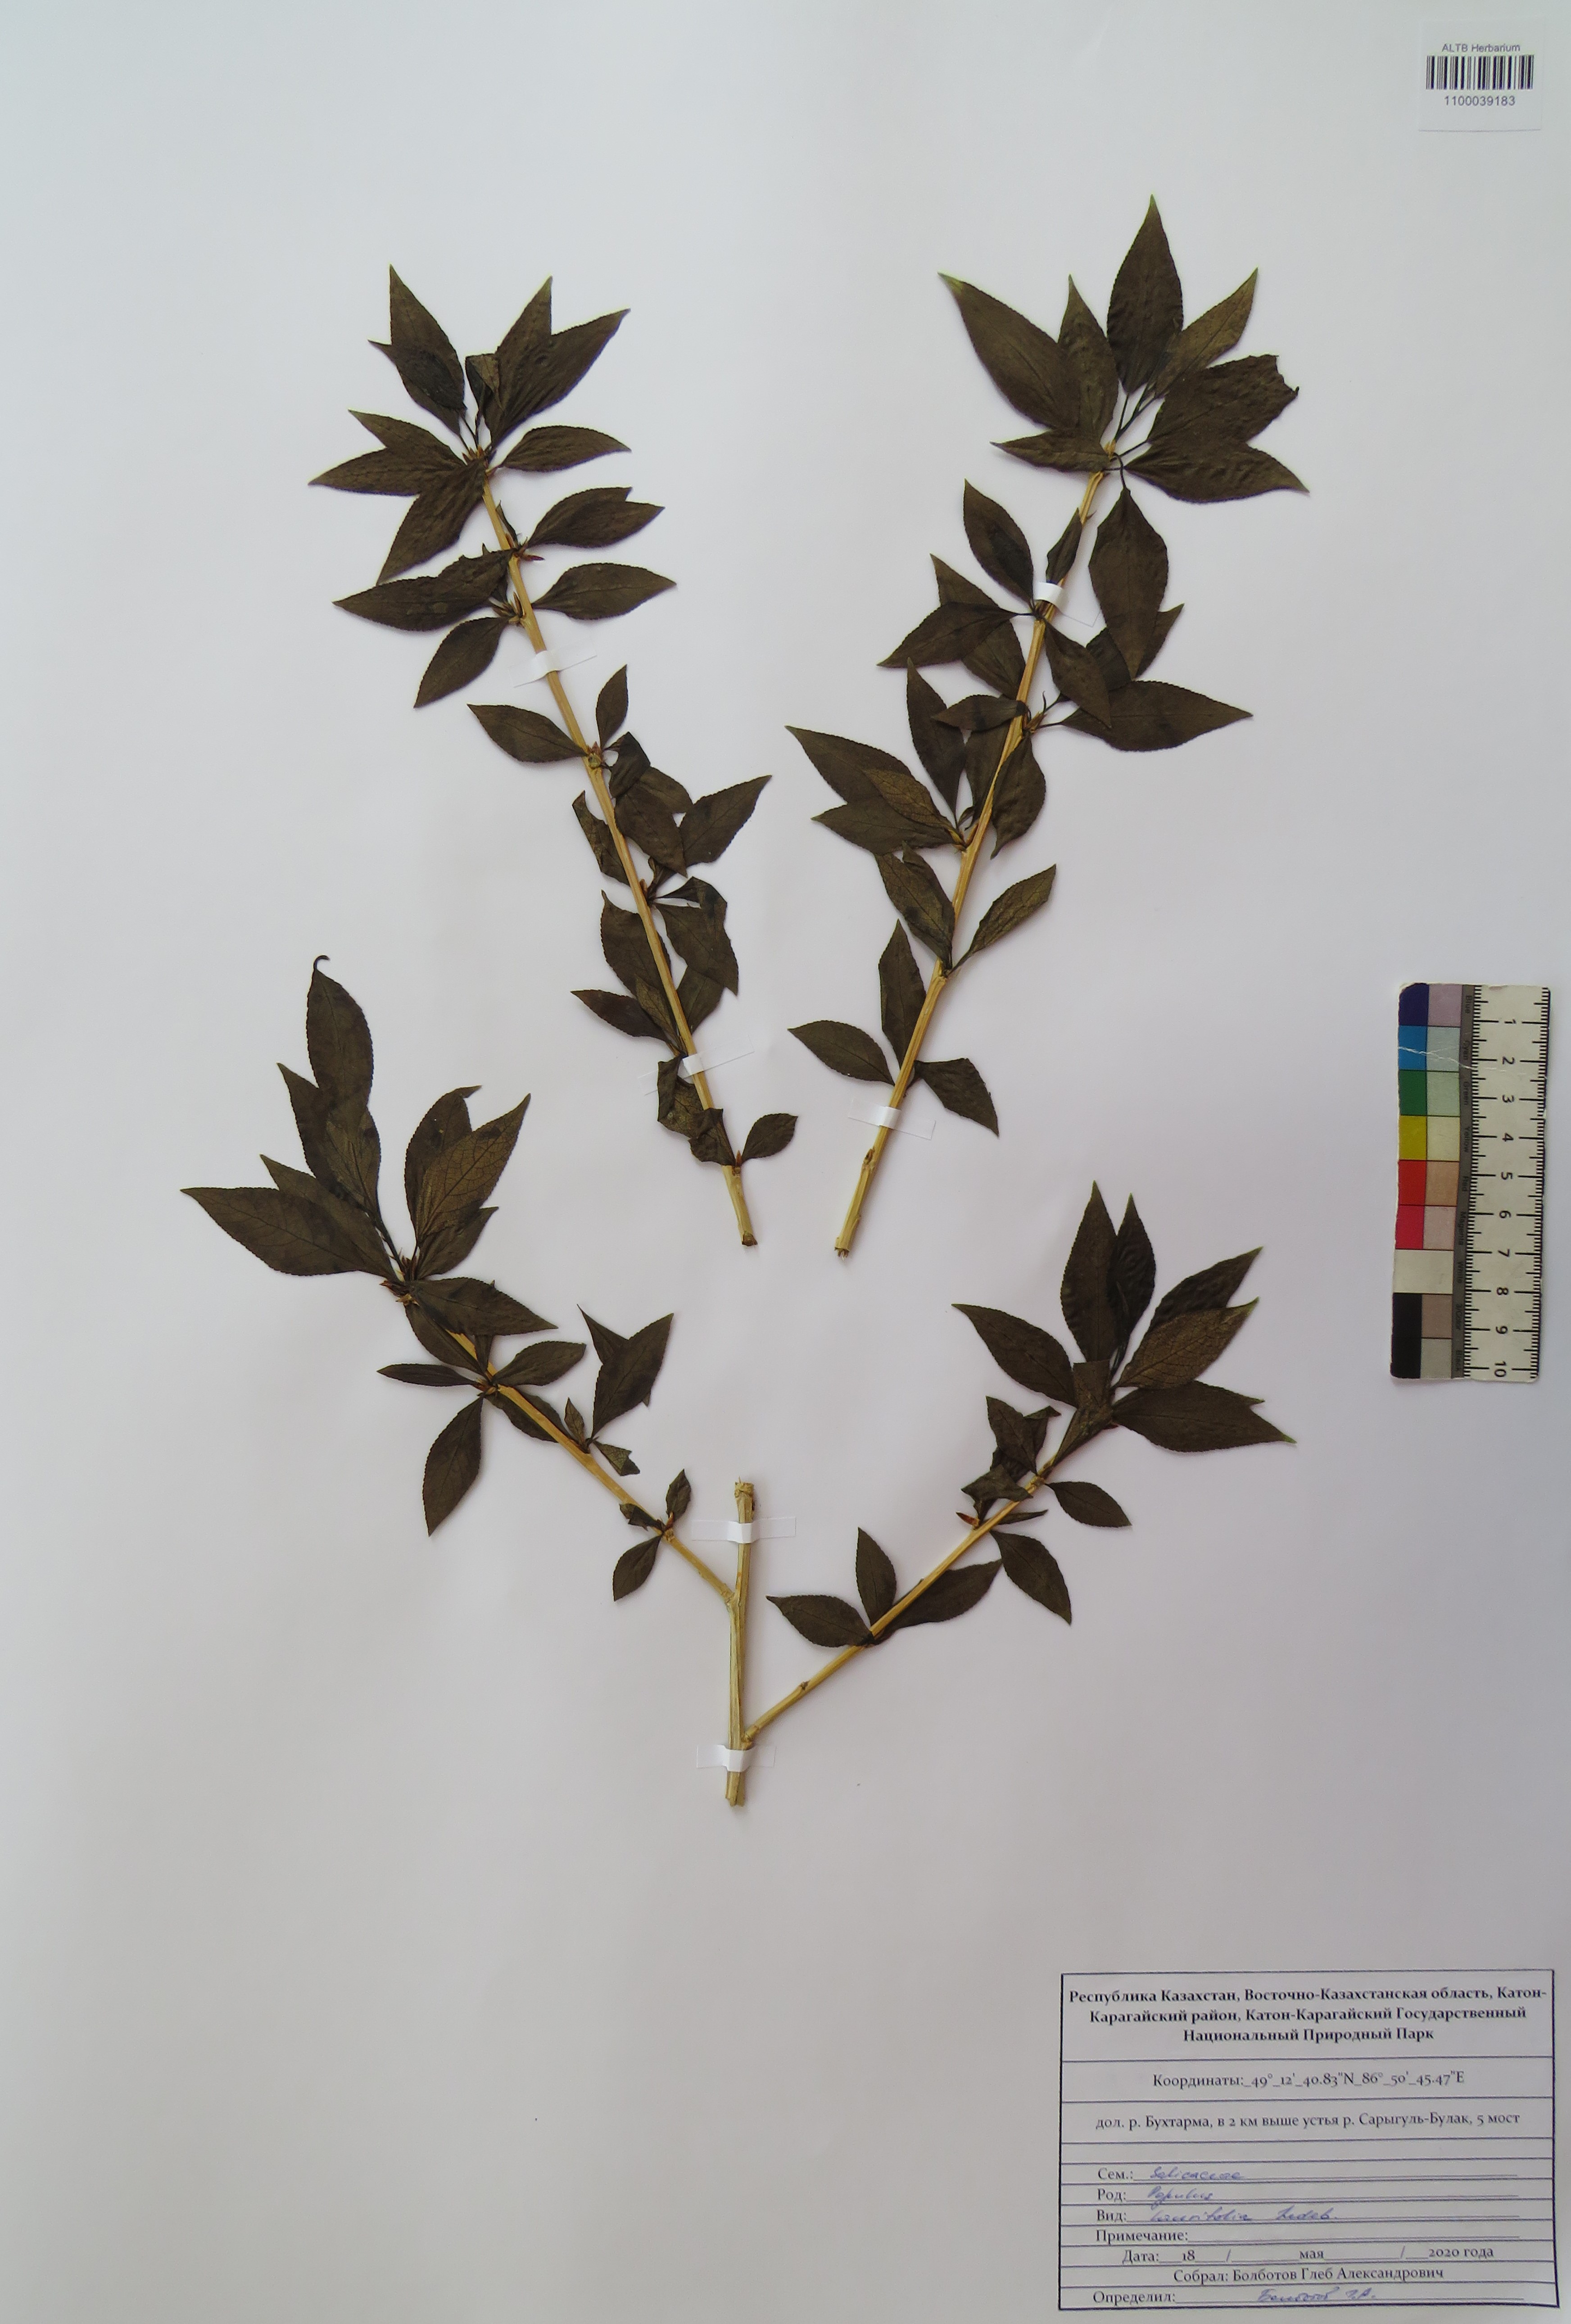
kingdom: Plantae
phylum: Tracheophyta
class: Magnoliopsida
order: Malpighiales
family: Salicaceae
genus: Populus
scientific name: Populus laurifolia
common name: Laurel-leaf poplar
